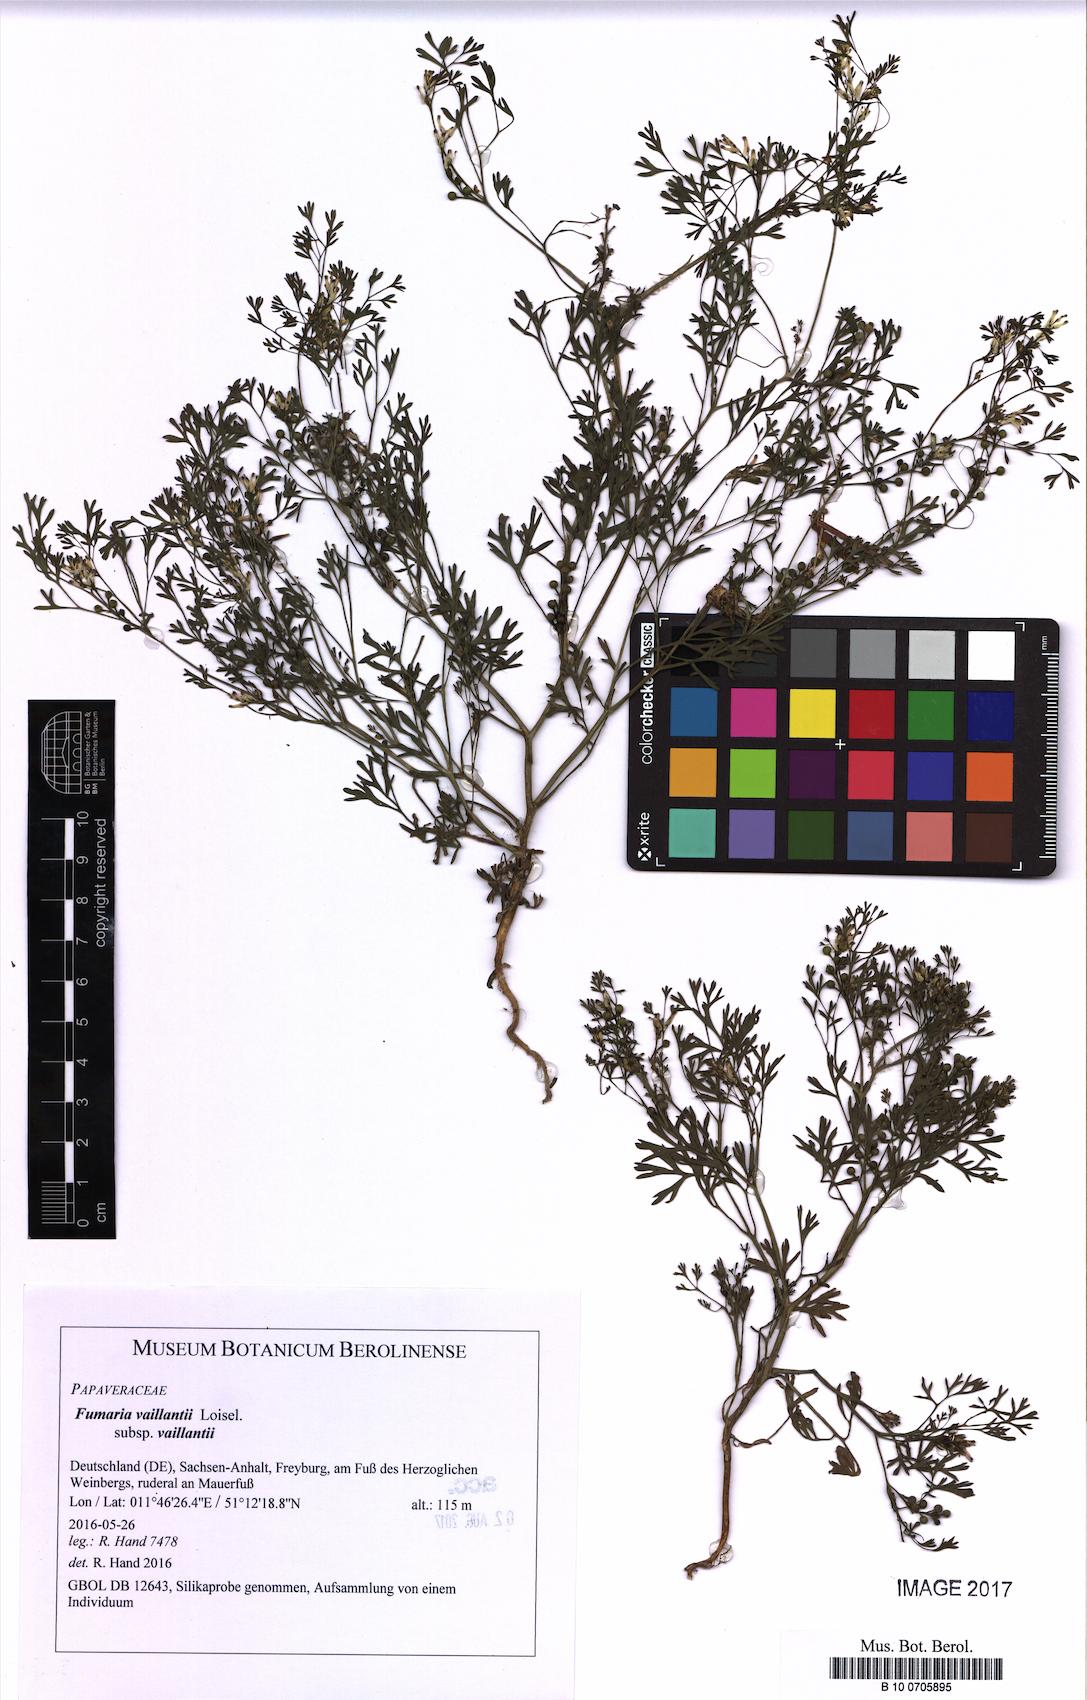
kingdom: Plantae
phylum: Tracheophyta
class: Magnoliopsida
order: Ranunculales
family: Papaveraceae
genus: Fumaria
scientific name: Fumaria vaillantii
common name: Few-flowered fumitory
